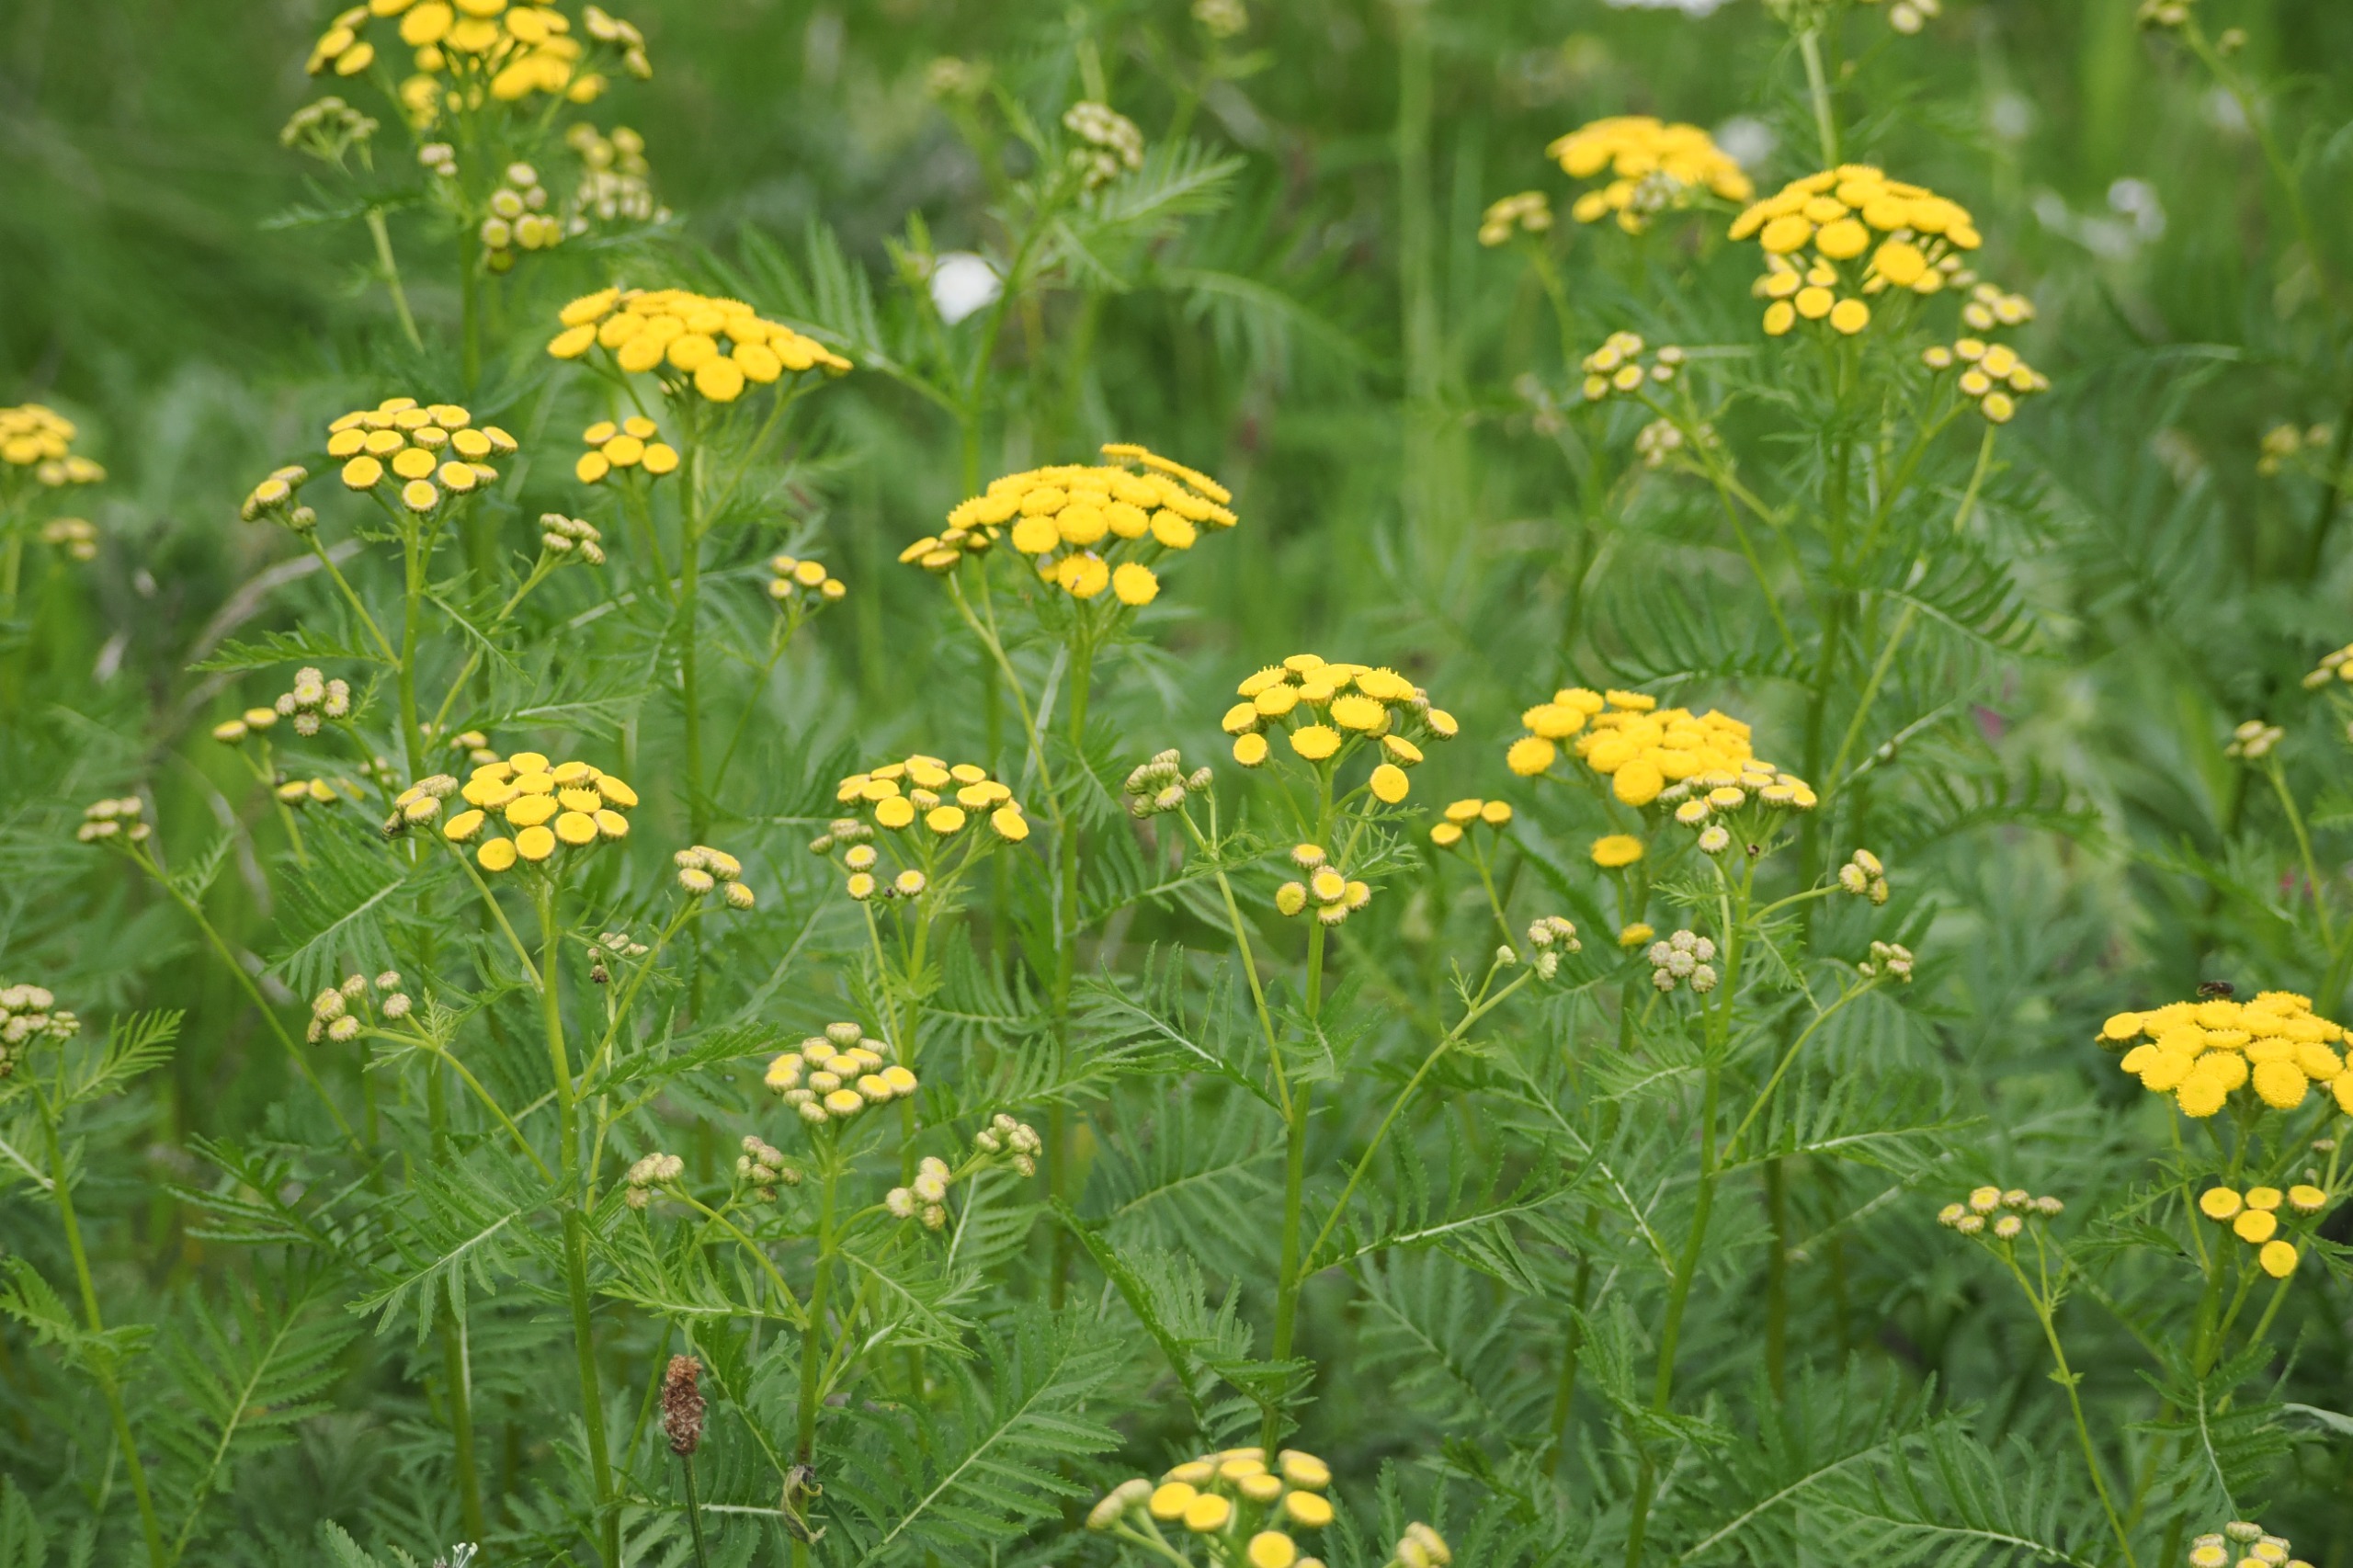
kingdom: Plantae
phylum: Tracheophyta
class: Magnoliopsida
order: Asterales
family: Asteraceae
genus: Tanacetum
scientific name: Tanacetum vulgare
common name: Rejnfan
